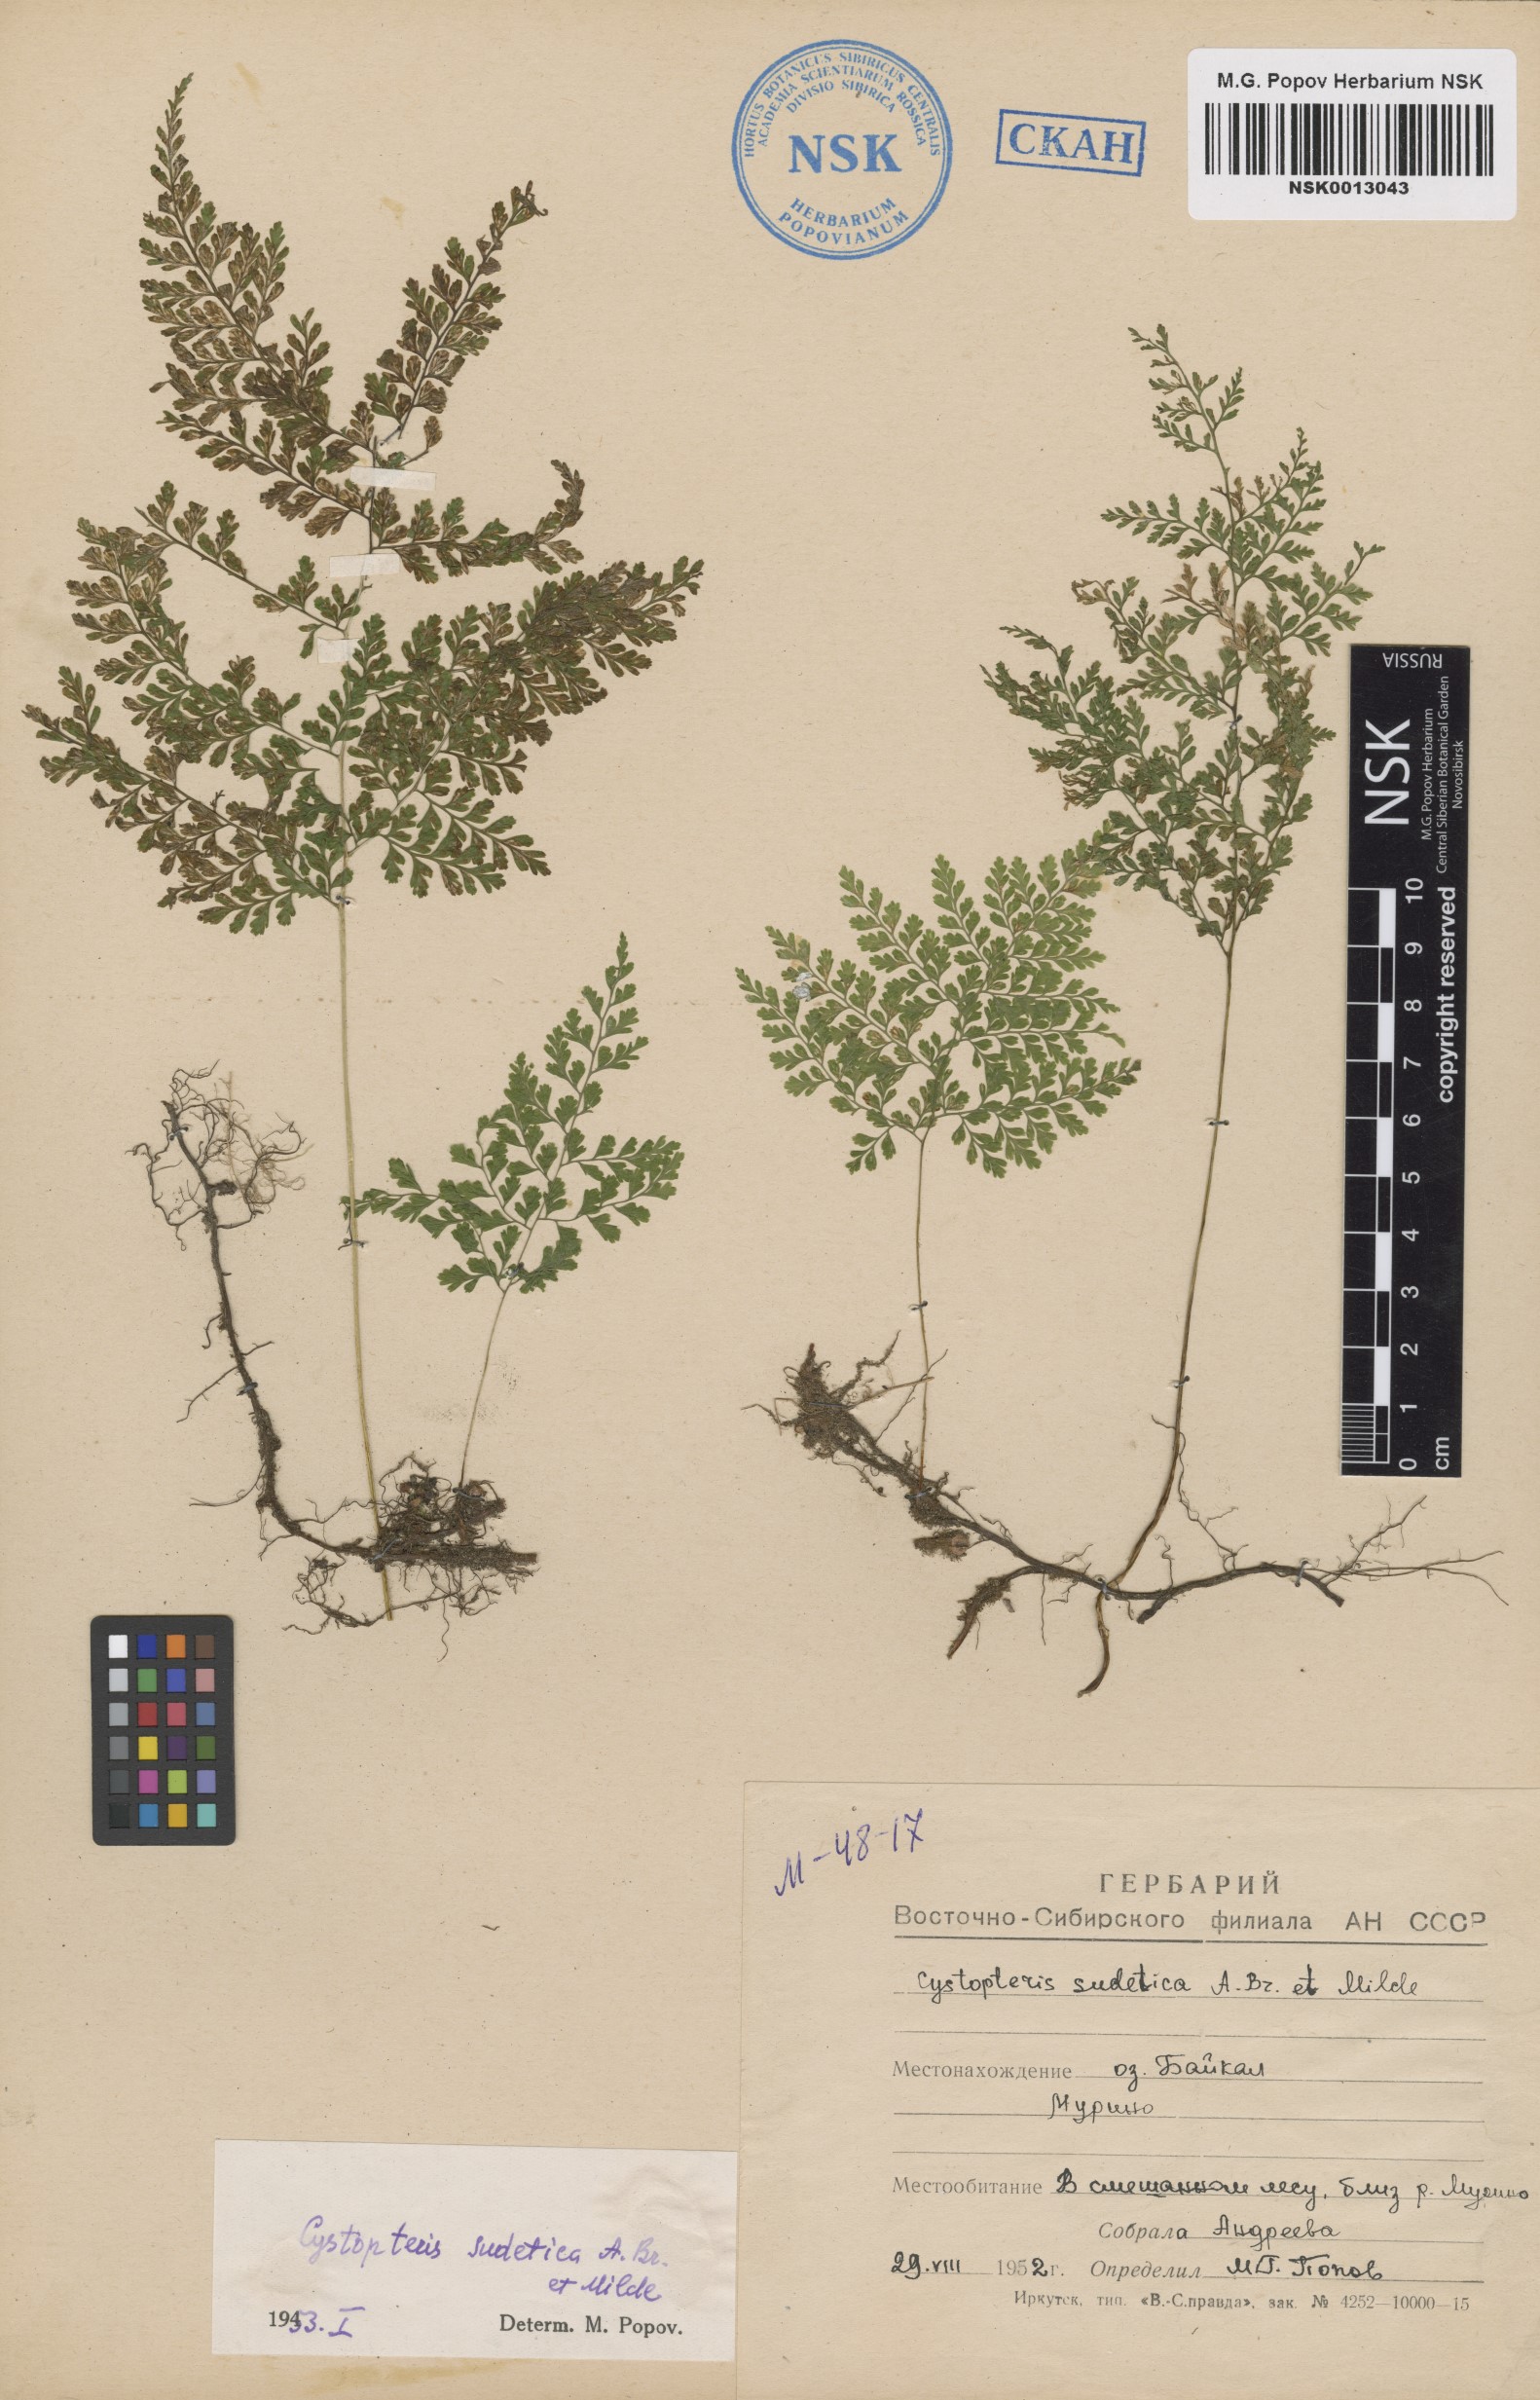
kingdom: Plantae
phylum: Tracheophyta
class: Polypodiopsida
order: Polypodiales
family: Cystopteridaceae
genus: Cystopteris
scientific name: Cystopteris sudetica
